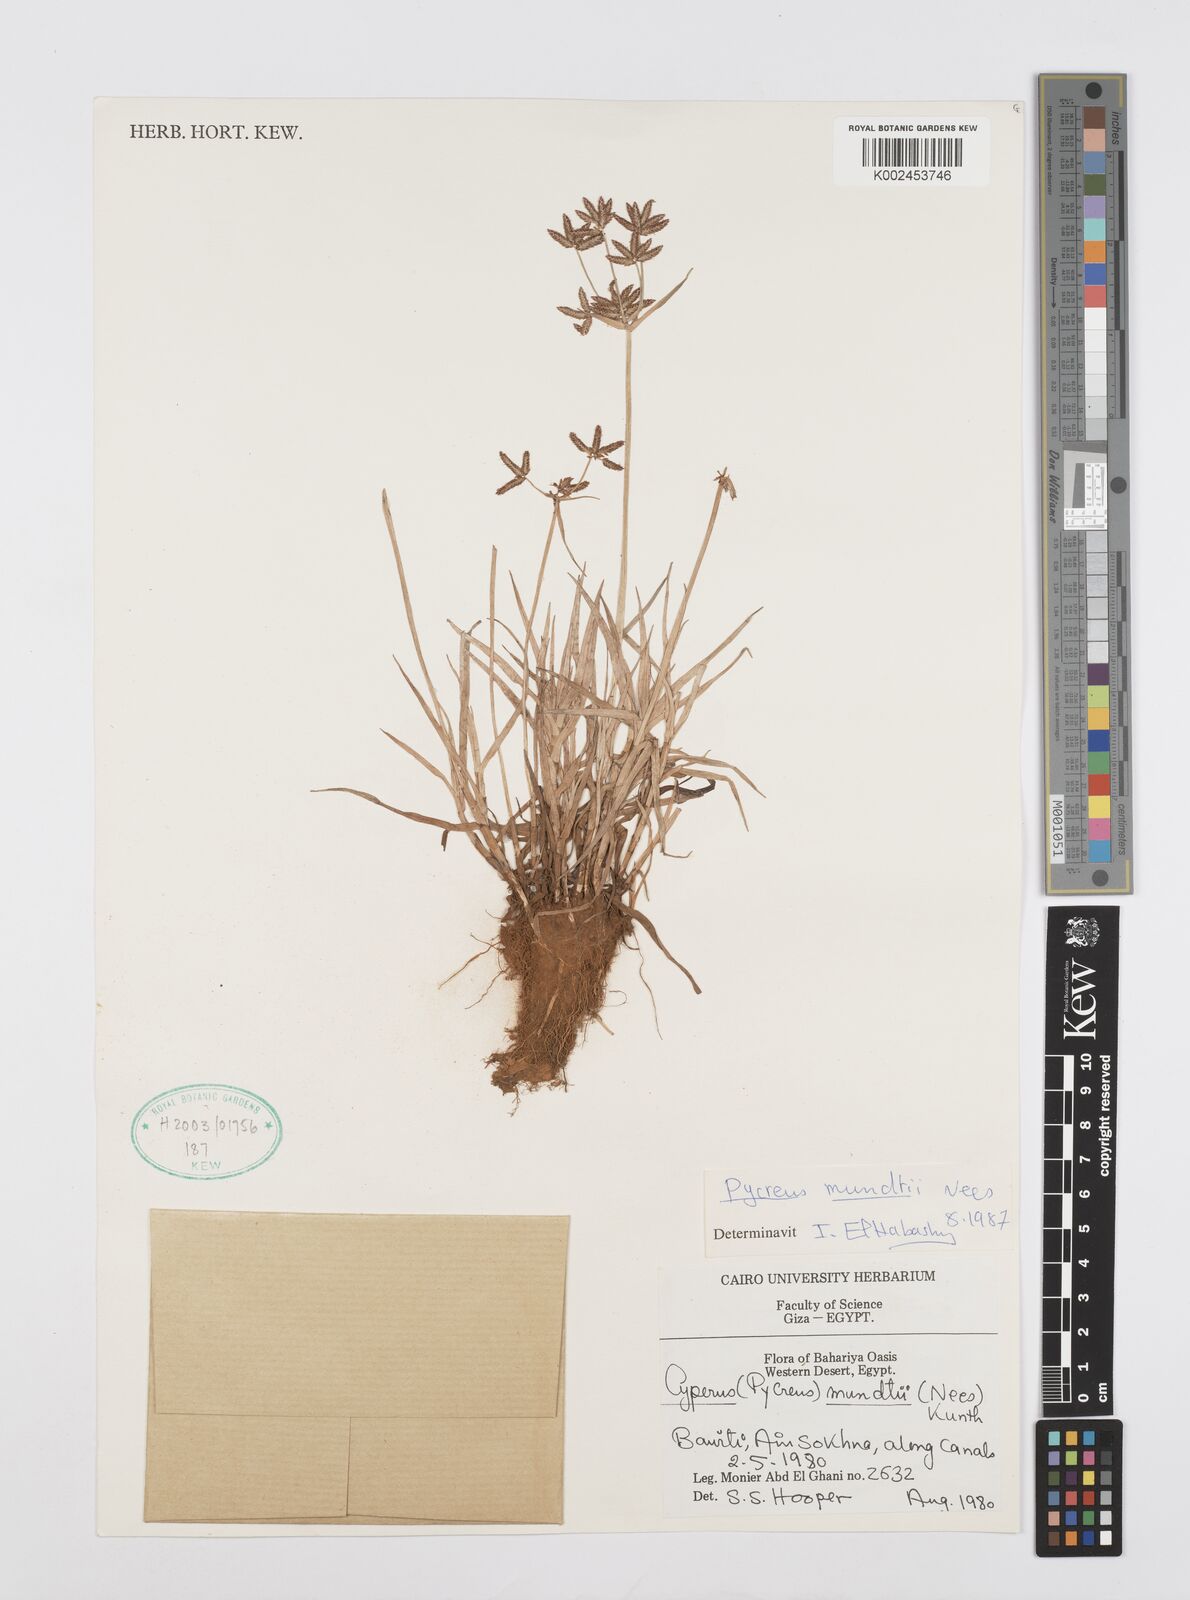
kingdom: Plantae
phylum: Tracheophyta
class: Liliopsida
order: Poales
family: Cyperaceae
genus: Cyperus
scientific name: Cyperus mundii
